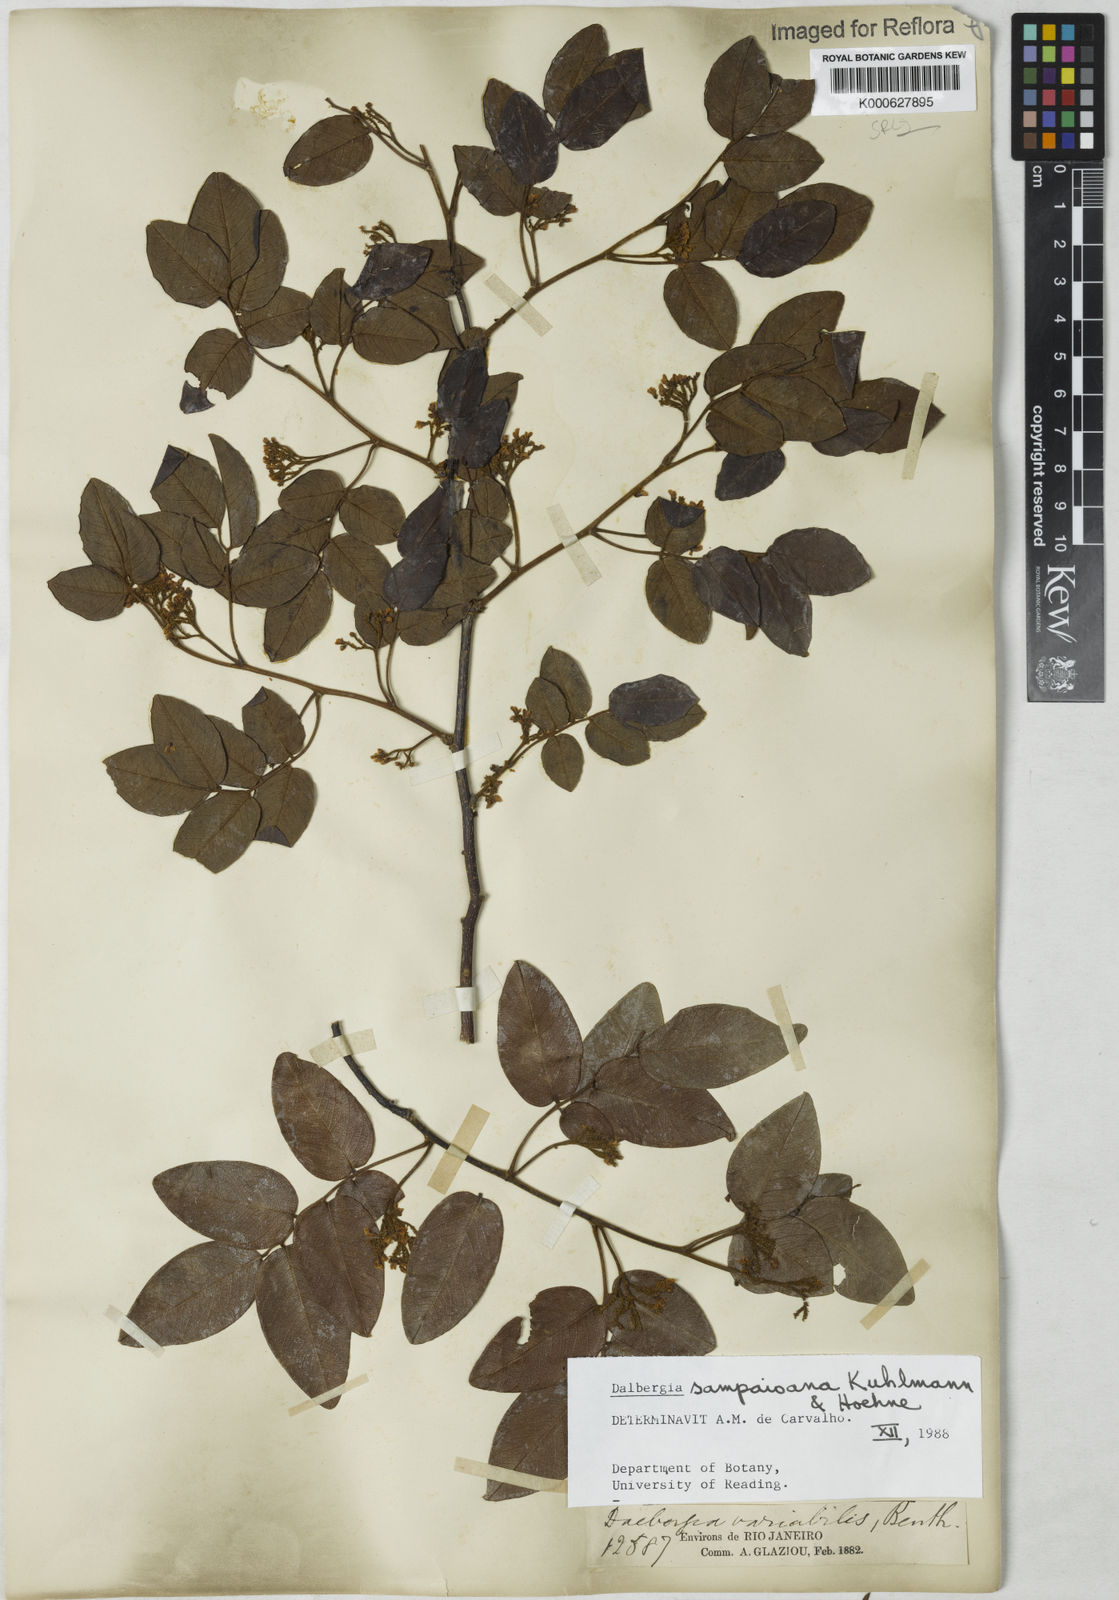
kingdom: Plantae
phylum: Tracheophyta
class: Magnoliopsida
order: Fabales
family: Fabaceae
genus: Dalbergia
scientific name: Dalbergia sampaioana
